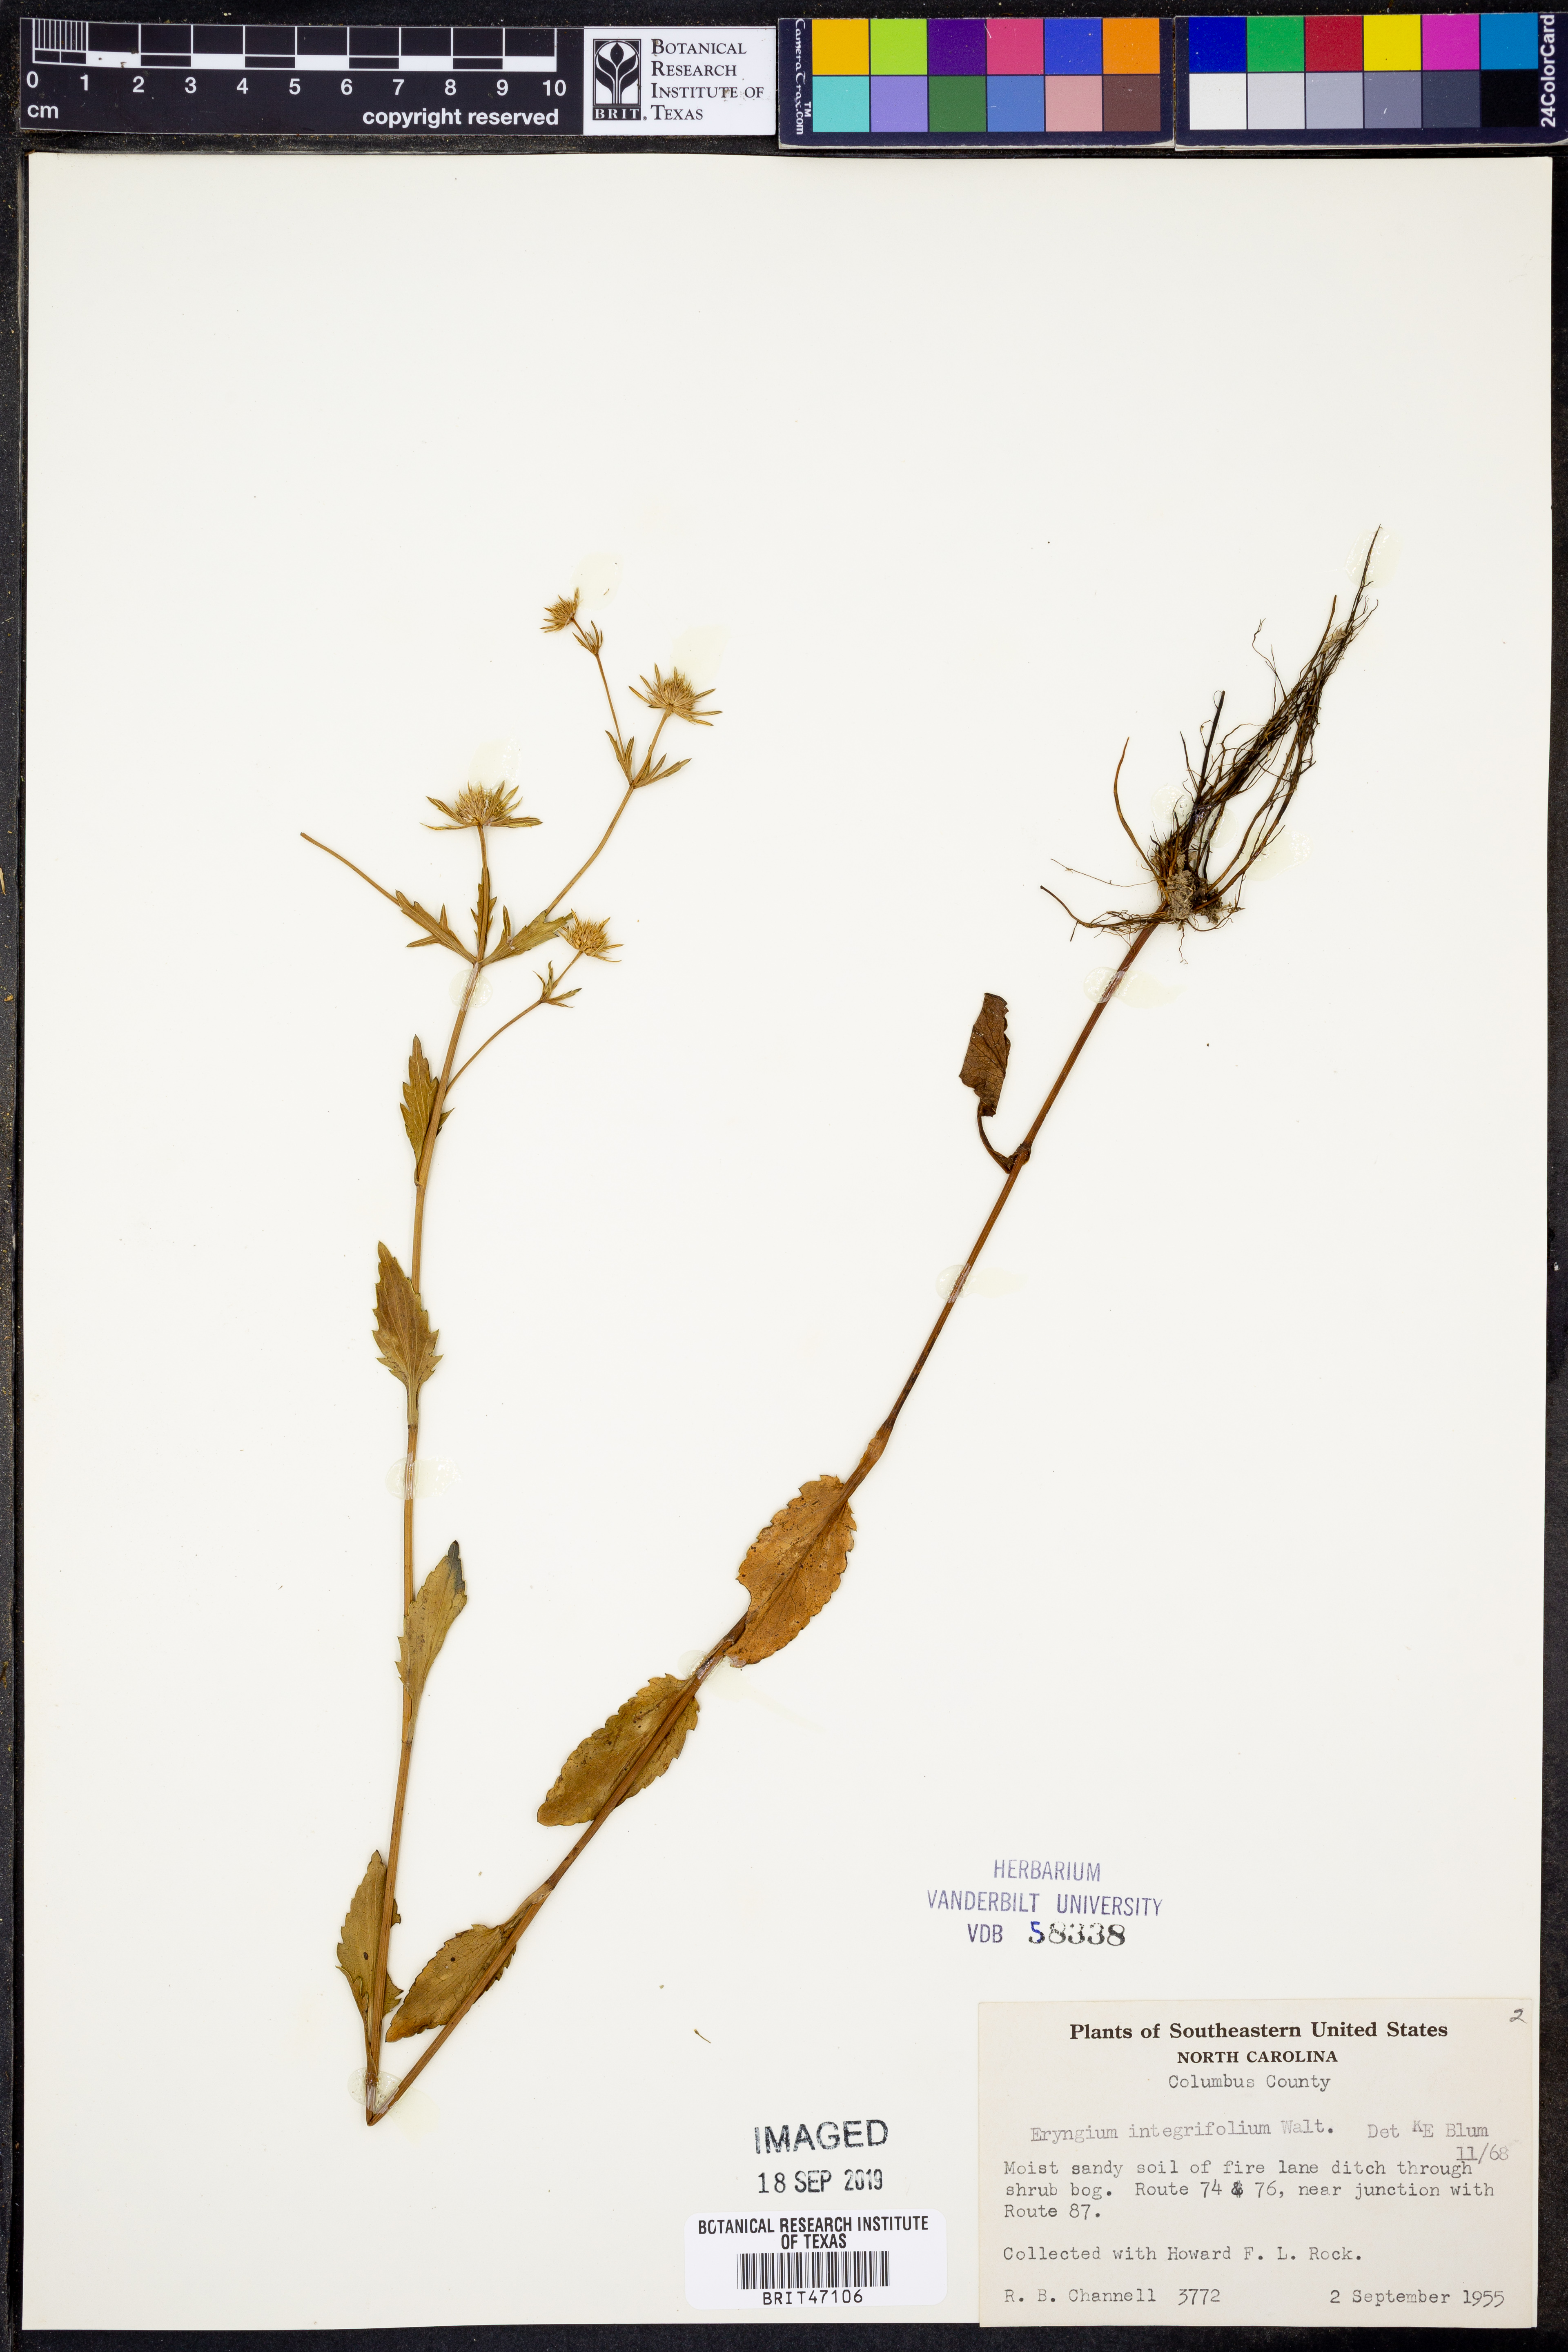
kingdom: Plantae
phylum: Tracheophyta
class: Magnoliopsida
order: Apiales
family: Apiaceae
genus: Eryngium
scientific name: Eryngium integrifolium
